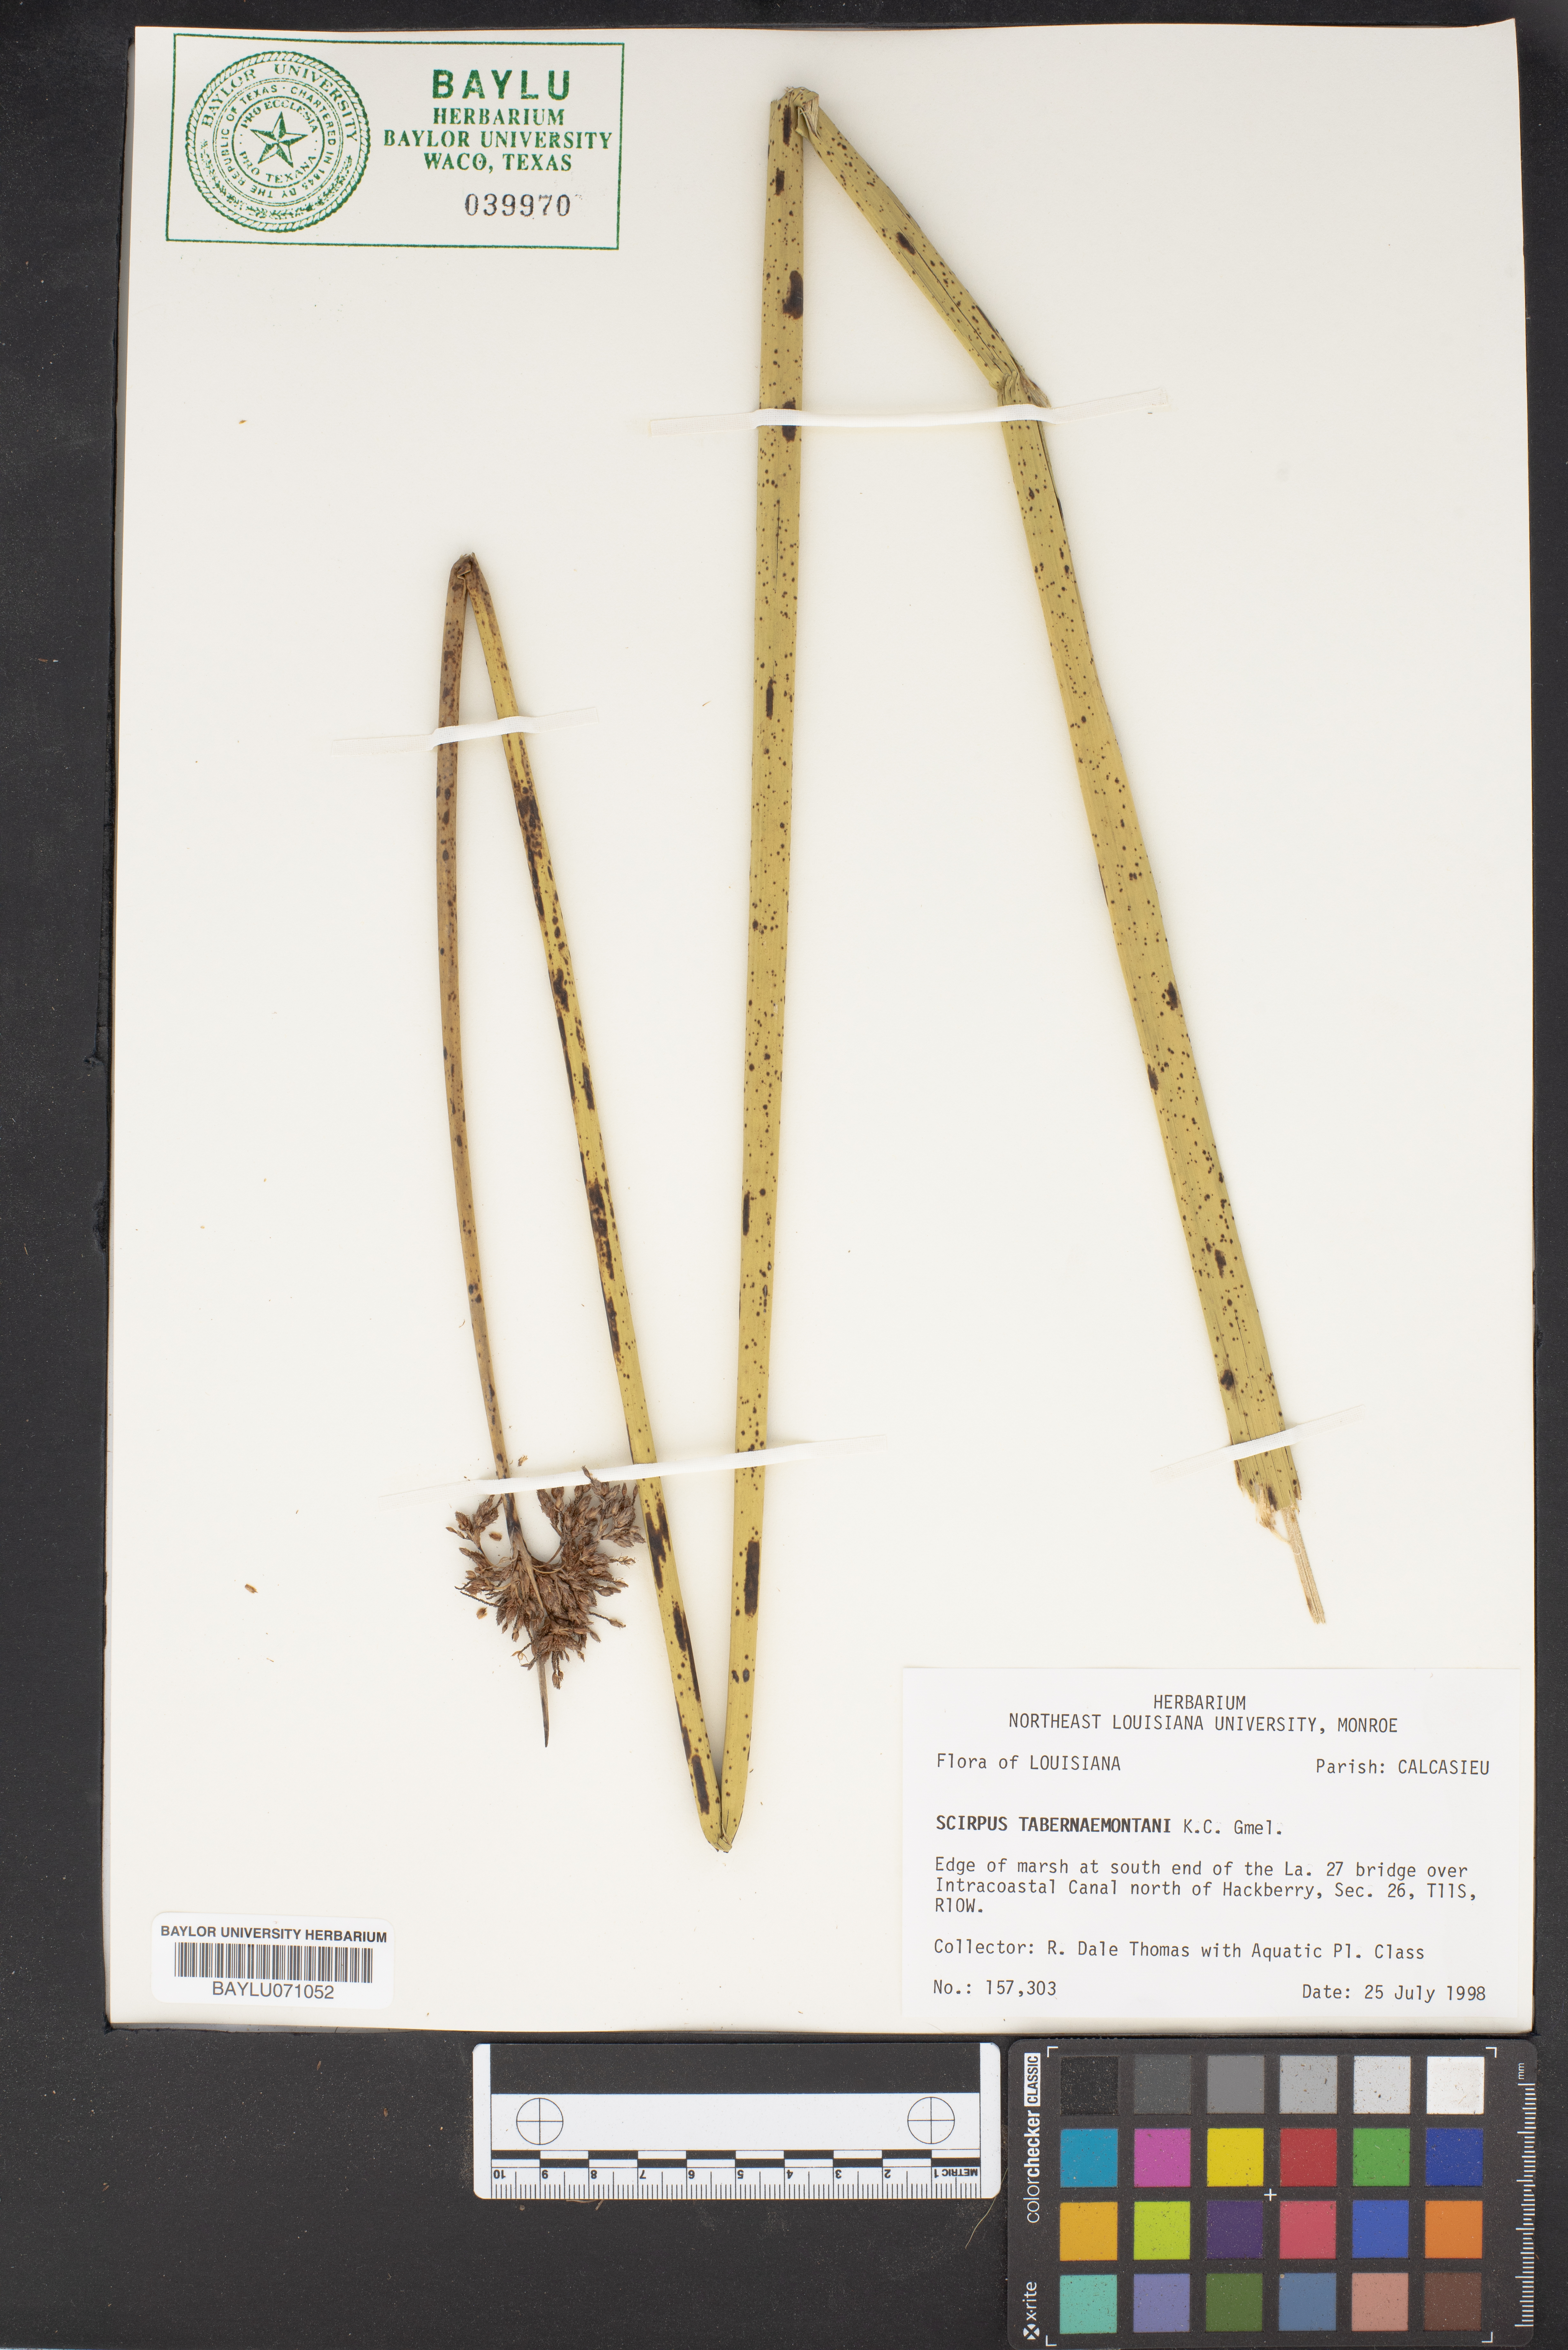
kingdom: Plantae
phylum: Tracheophyta
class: Liliopsida
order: Poales
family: Cyperaceae
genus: Schoenoplectus
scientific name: Schoenoplectus
